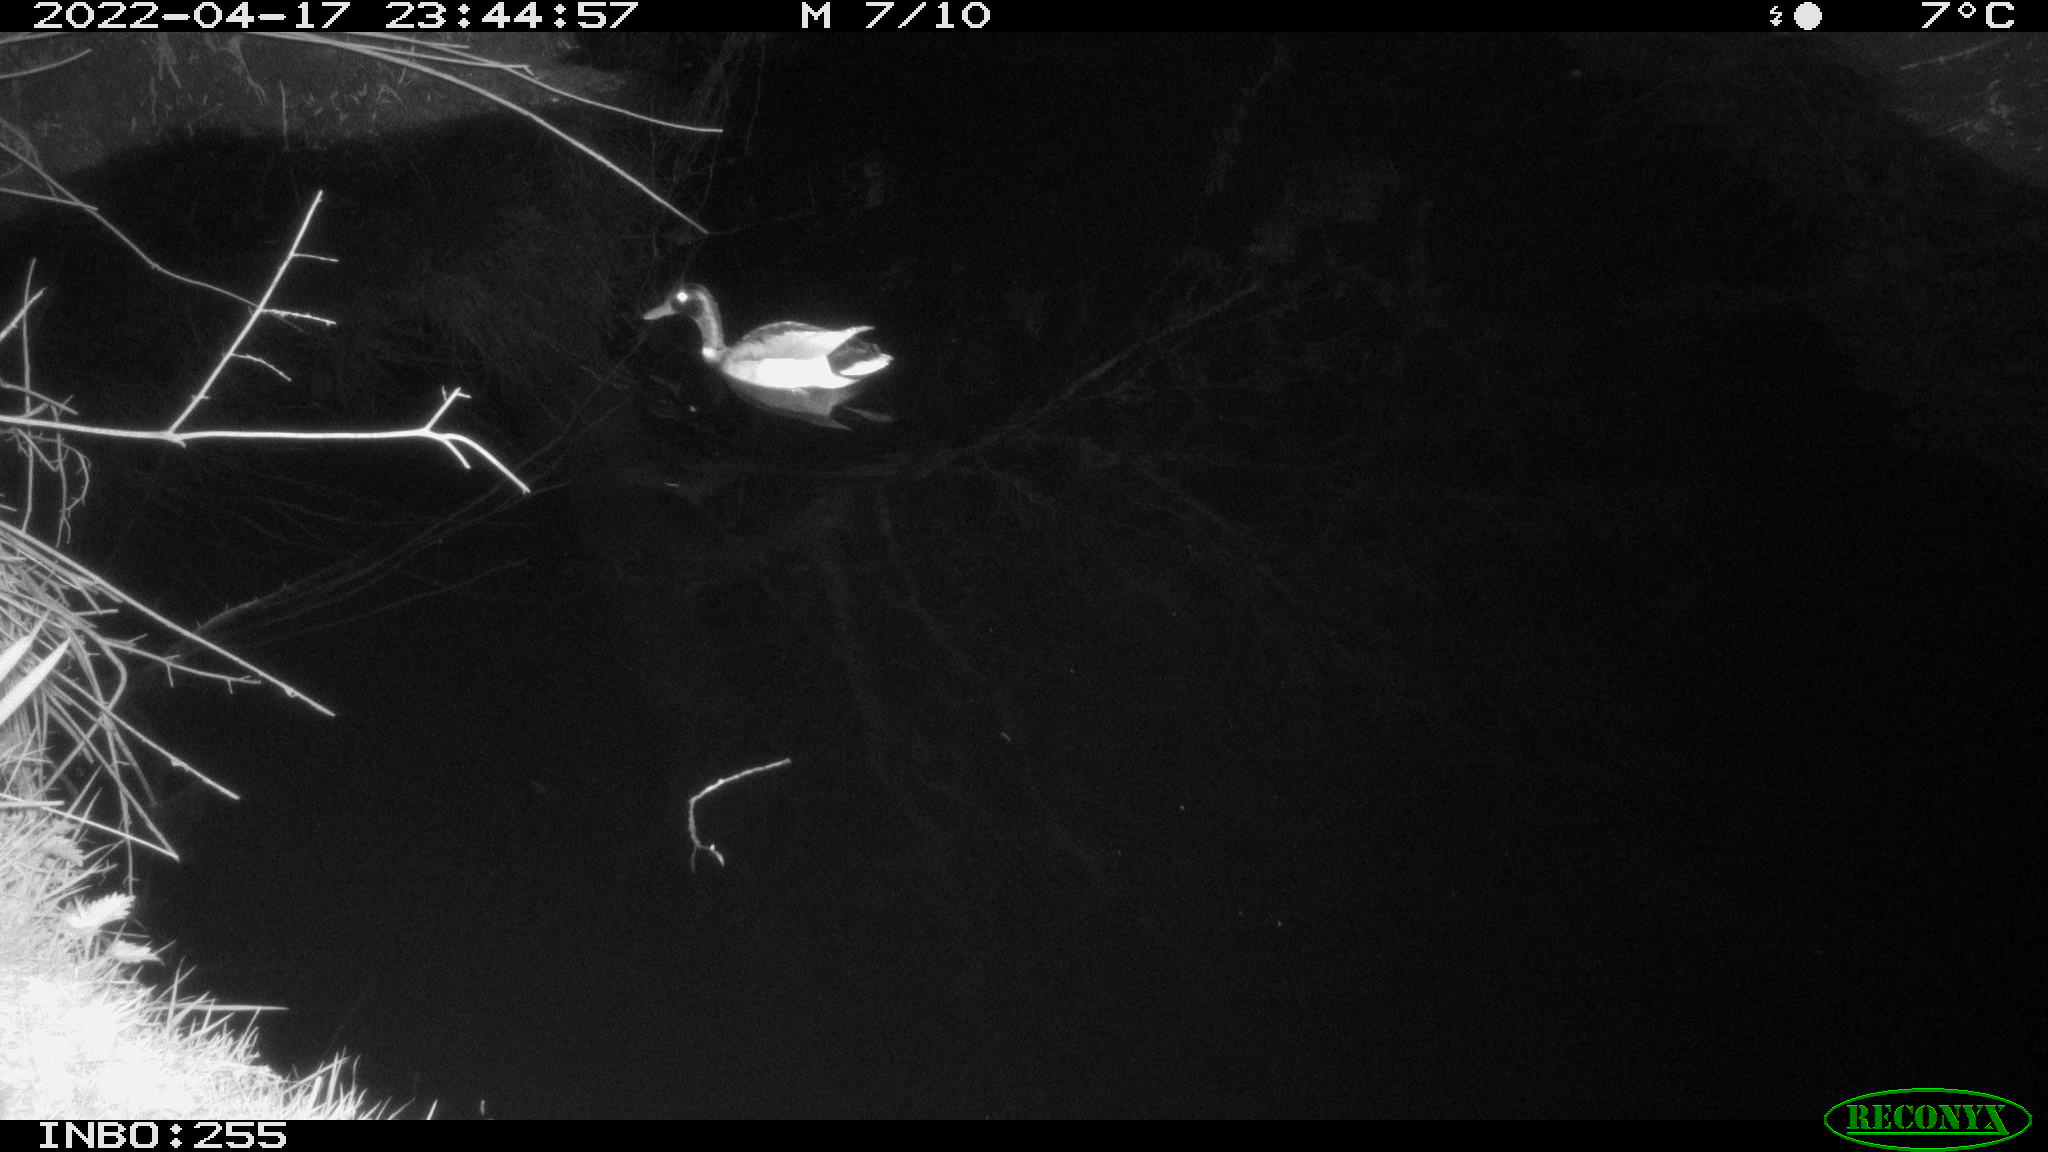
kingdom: Animalia
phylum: Chordata
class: Aves
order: Anseriformes
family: Anatidae
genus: Anas
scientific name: Anas platyrhynchos
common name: Mallard
